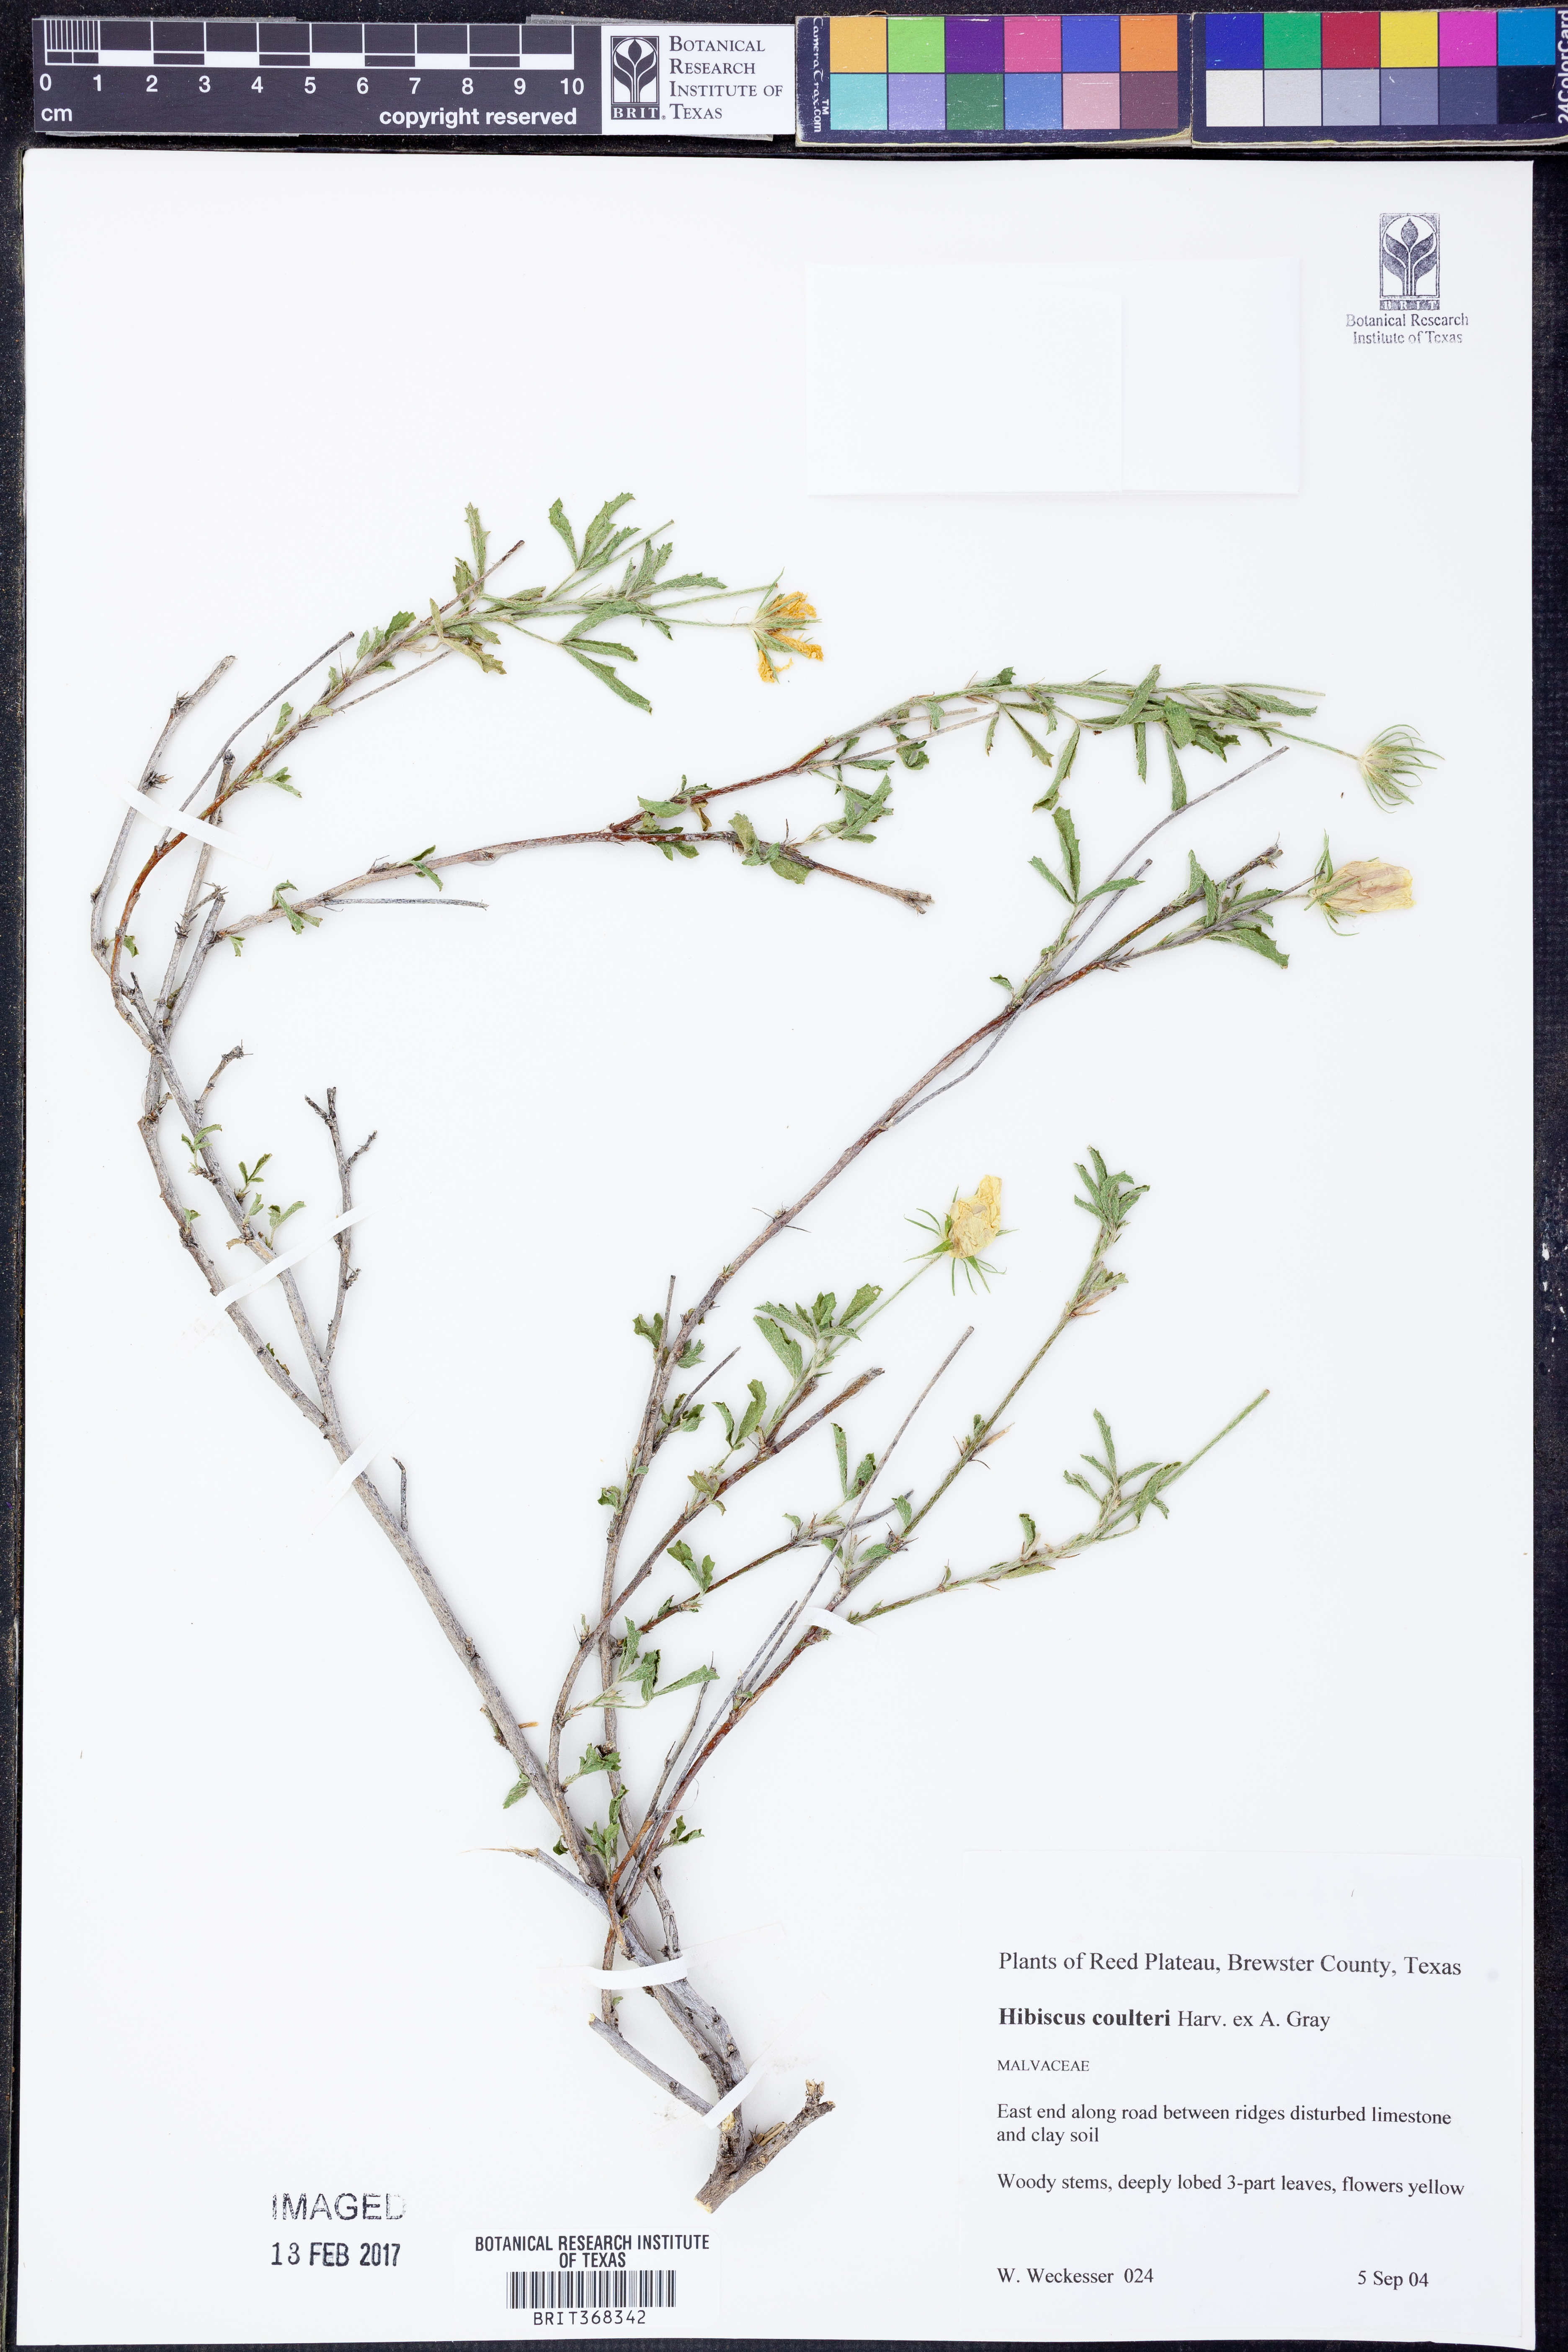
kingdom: Plantae
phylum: Tracheophyta
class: Magnoliopsida
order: Malvales
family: Malvaceae
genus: Hibiscus
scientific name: Hibiscus coulteri
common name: Desert rose-mallow
